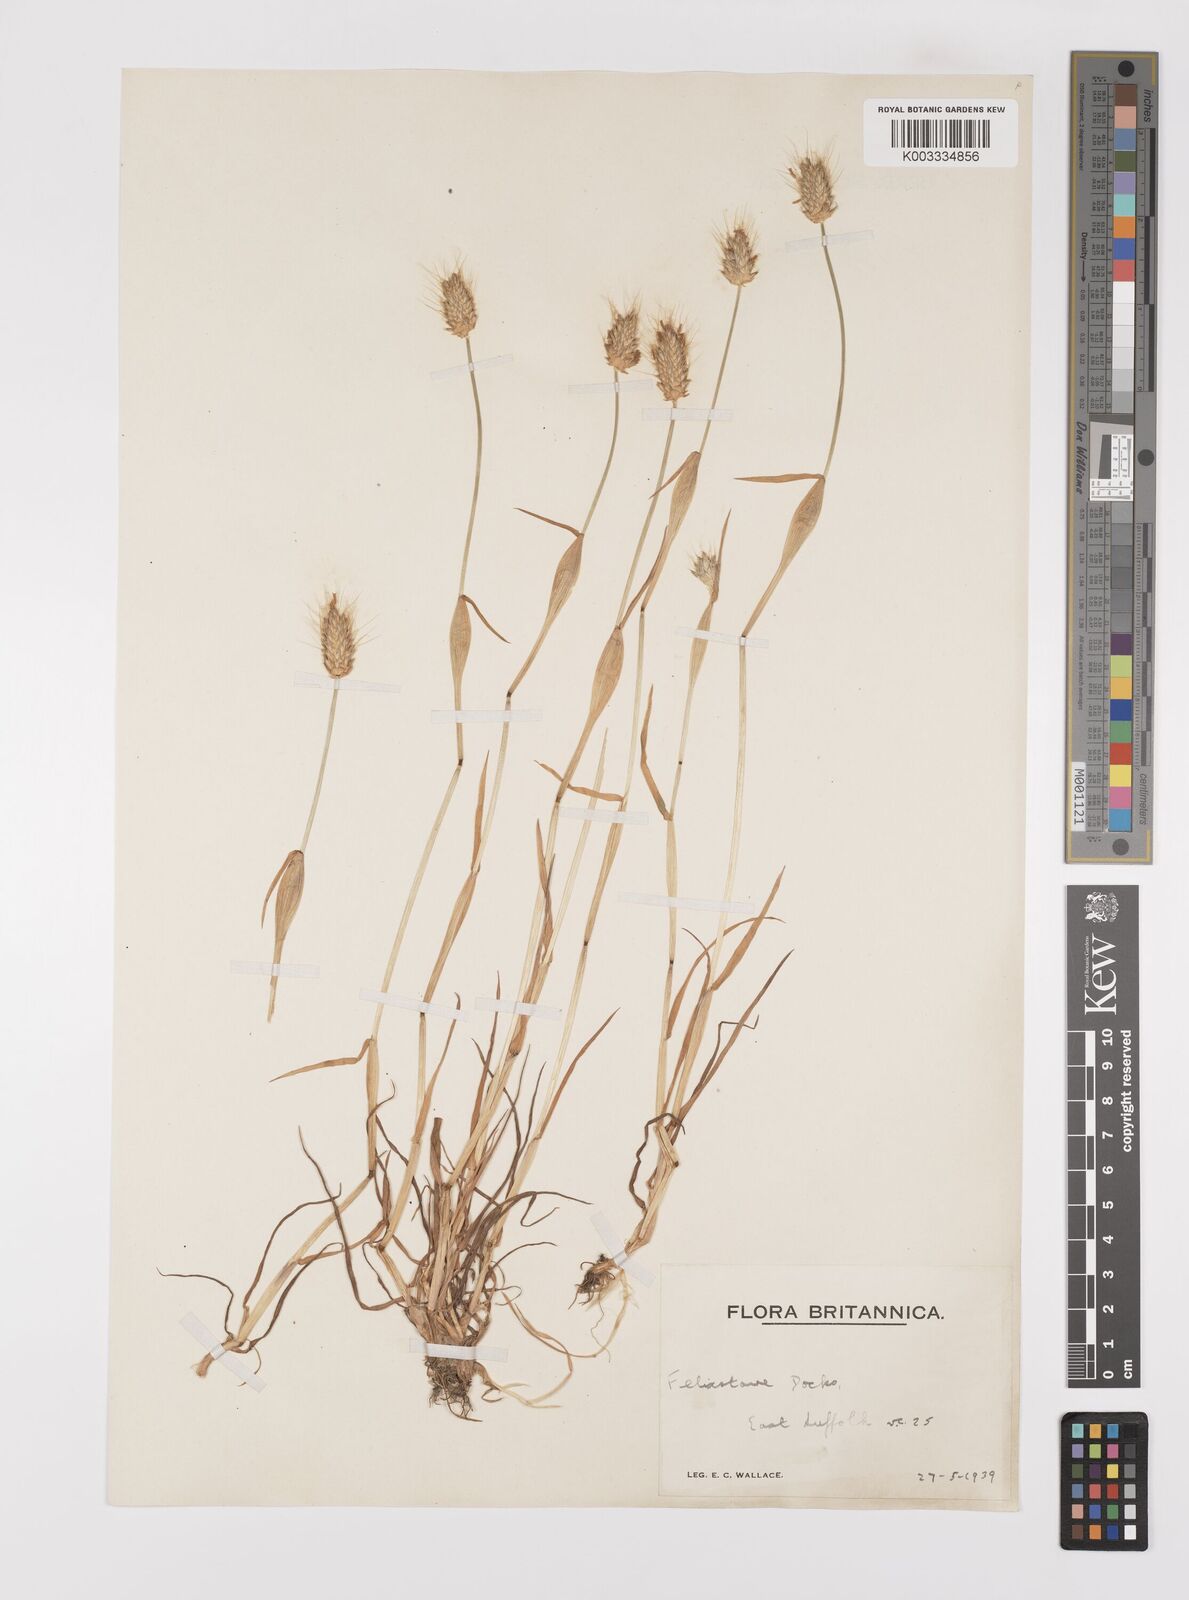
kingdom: Plantae
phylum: Tracheophyta
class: Liliopsida
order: Poales
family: Poaceae
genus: Alopecurus
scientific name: Alopecurus rendlei
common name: Rendle's meadow foxtail
